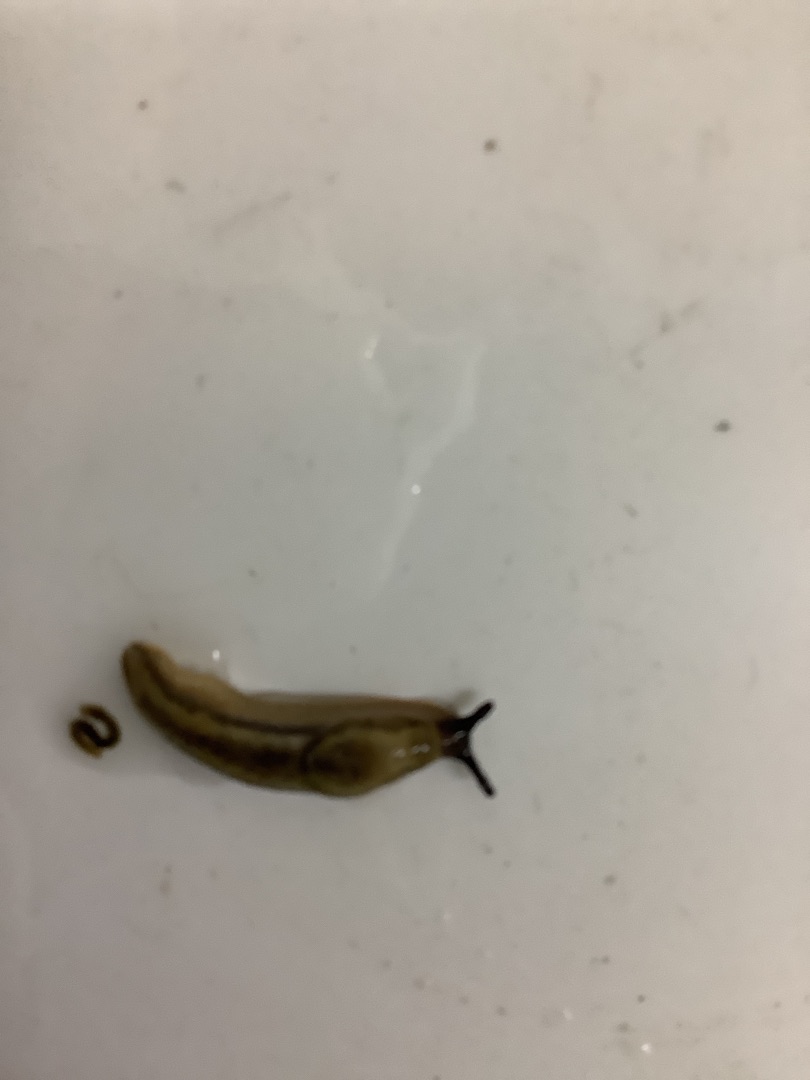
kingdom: Animalia
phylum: Mollusca
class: Gastropoda
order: Stylommatophora
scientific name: Stylommatophora
